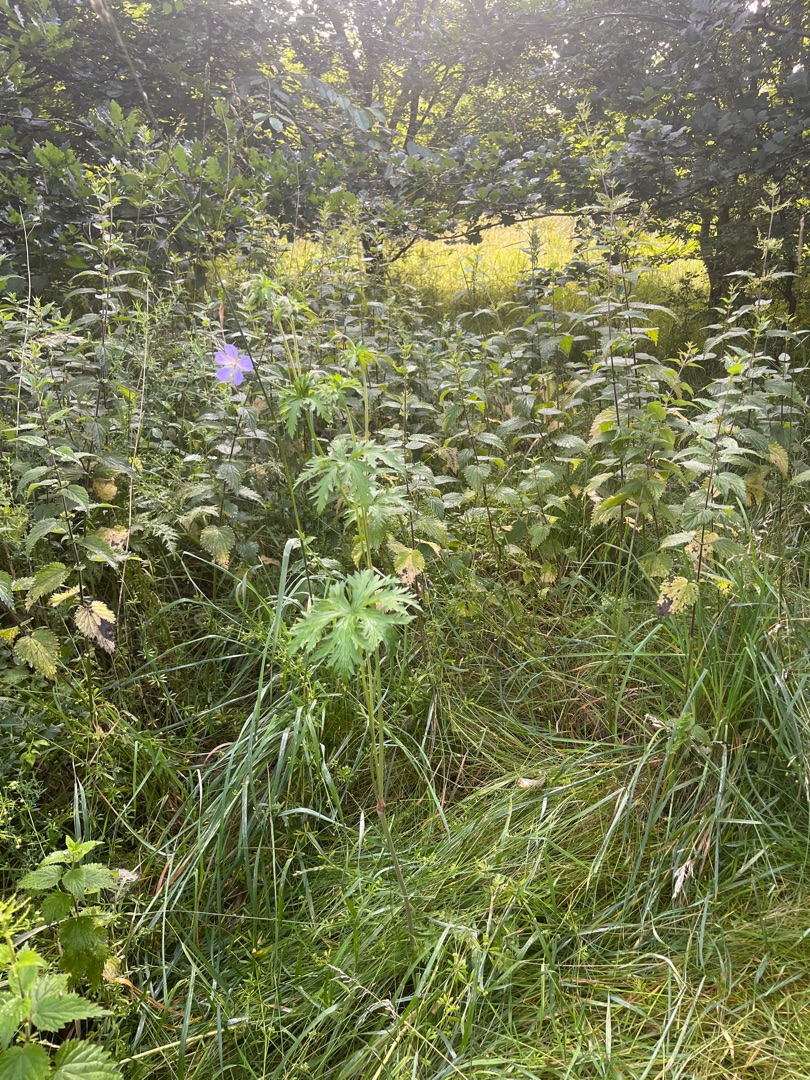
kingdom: Plantae
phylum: Tracheophyta
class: Magnoliopsida
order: Geraniales
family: Geraniaceae
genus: Geranium
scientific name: Geranium pratense
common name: Eng-storkenæb
